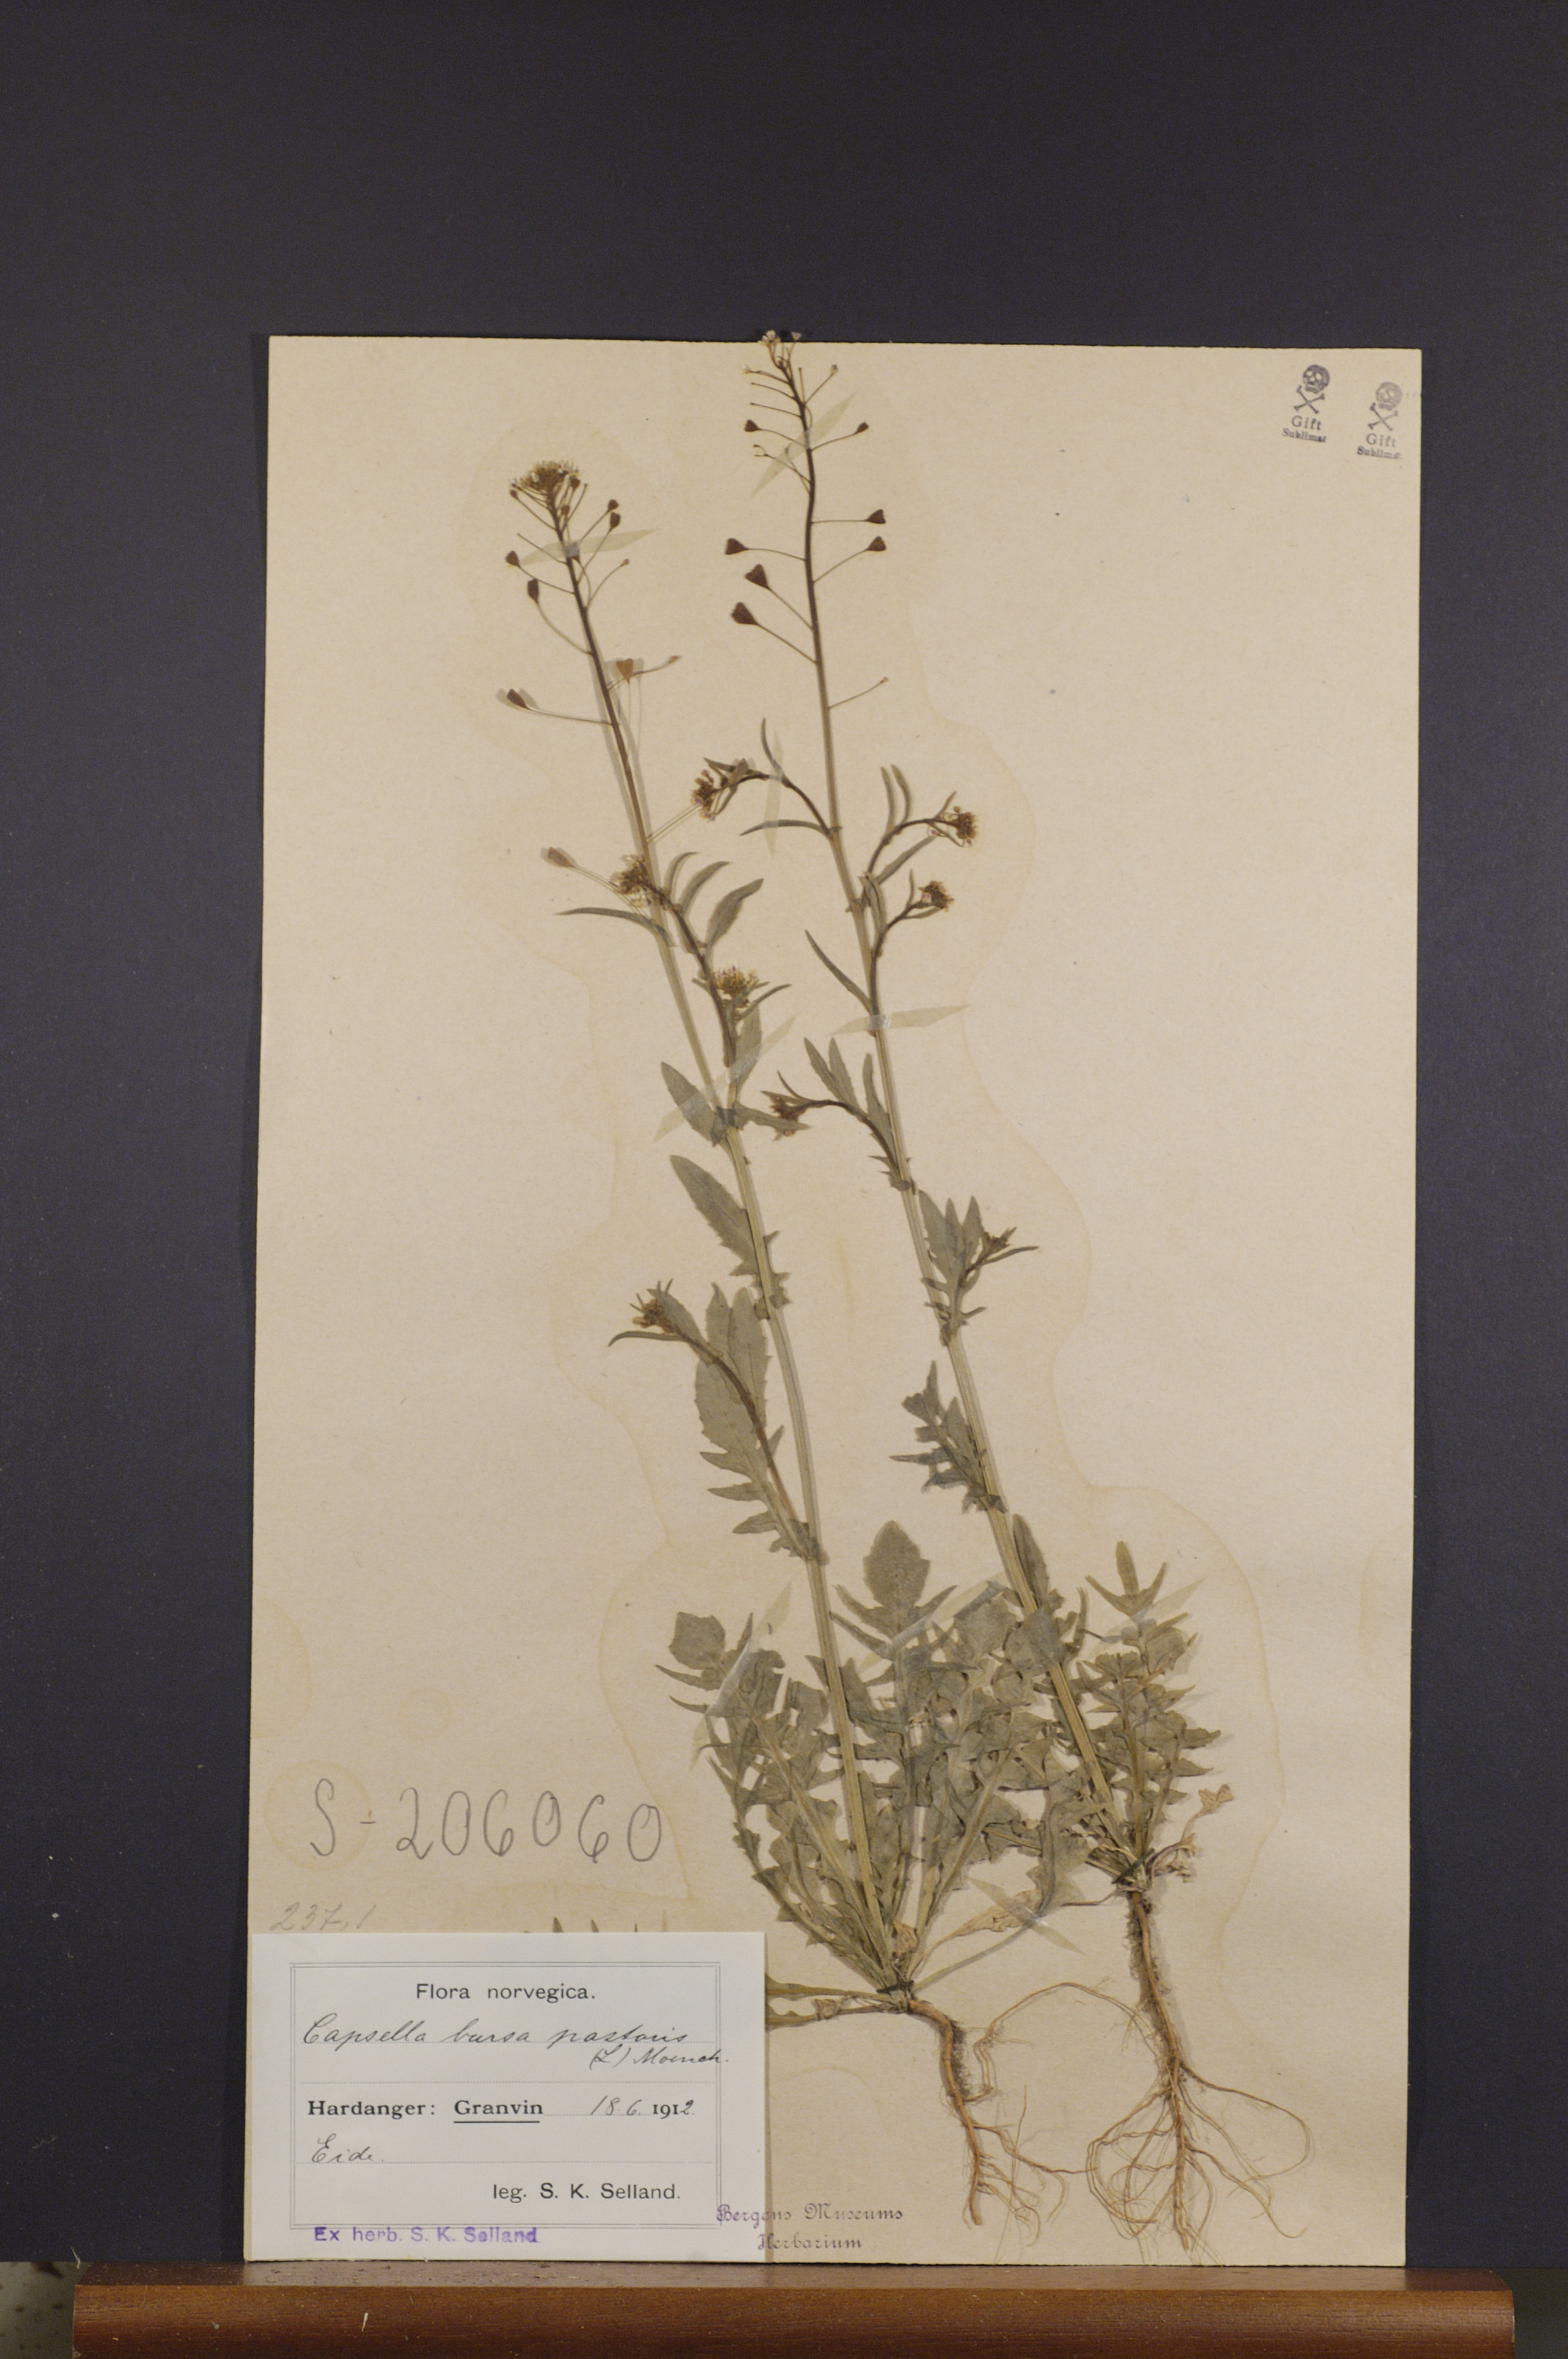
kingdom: Plantae
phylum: Tracheophyta
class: Magnoliopsida
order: Brassicales
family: Brassicaceae
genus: Capsella
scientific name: Capsella bursa-pastoris
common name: Shepherd's purse
